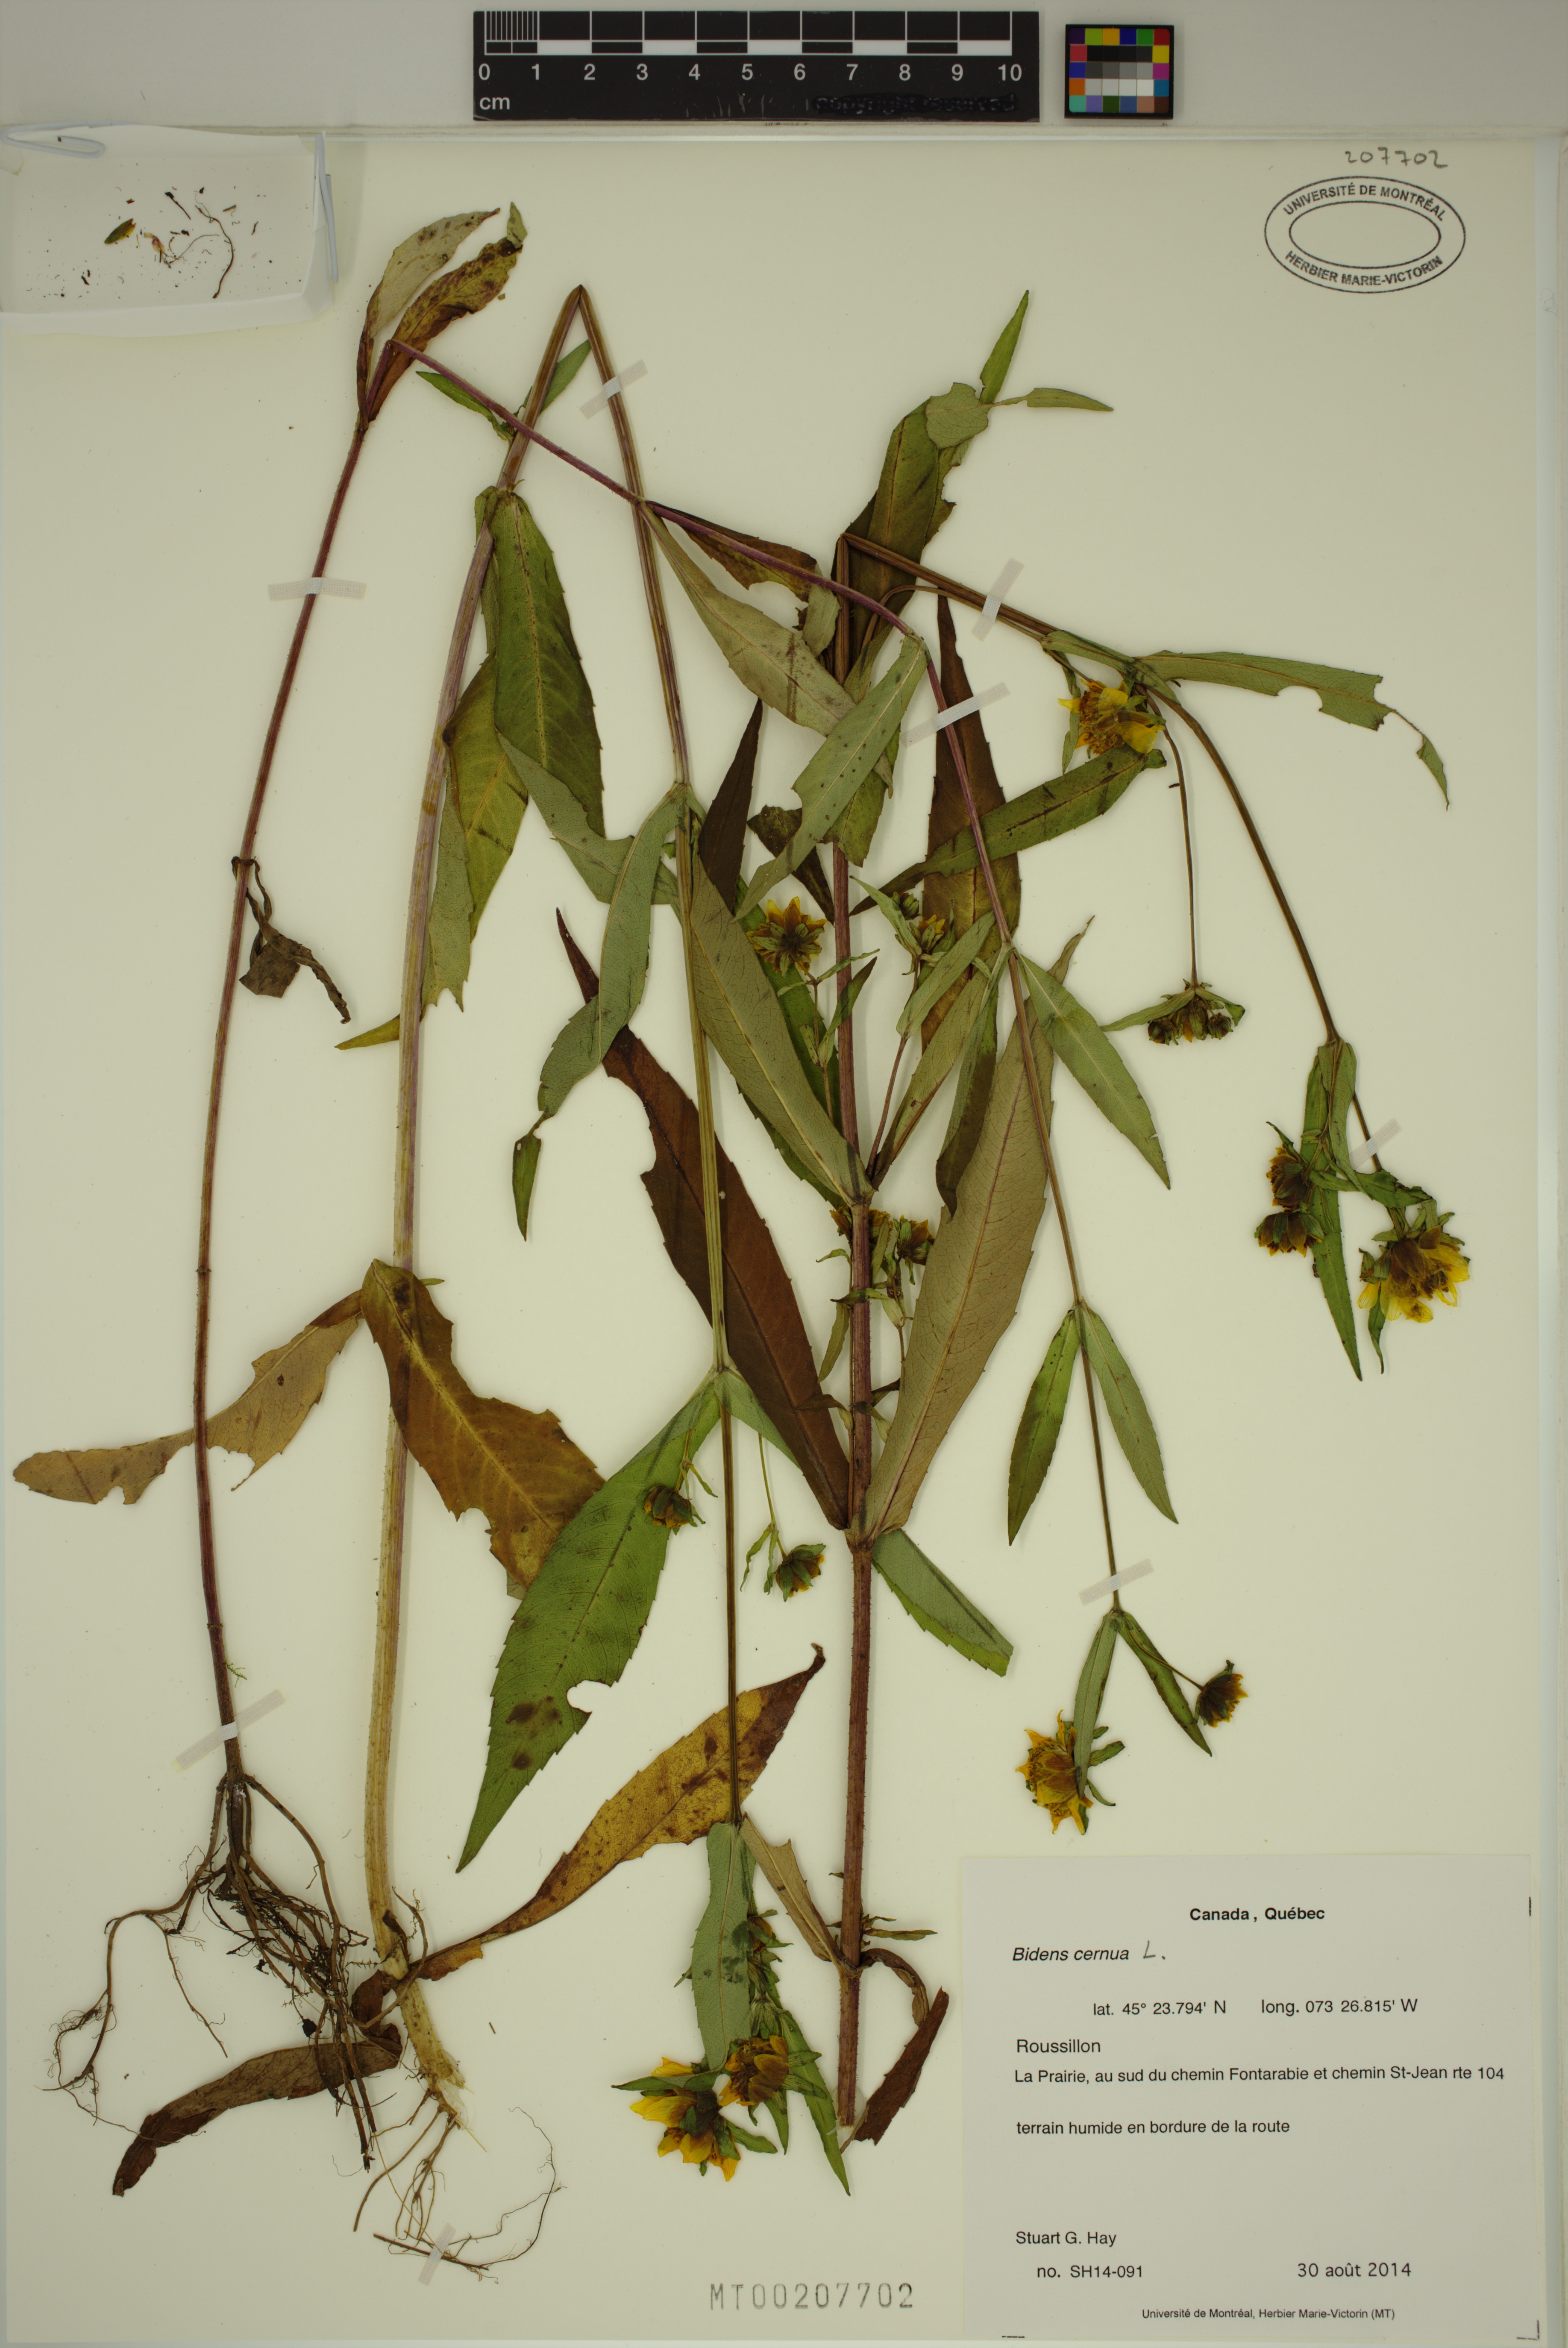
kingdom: Plantae
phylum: Tracheophyta
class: Magnoliopsida
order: Asterales
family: Asteraceae
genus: Bidens
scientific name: Bidens cernua
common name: Nodding bur-marigold
